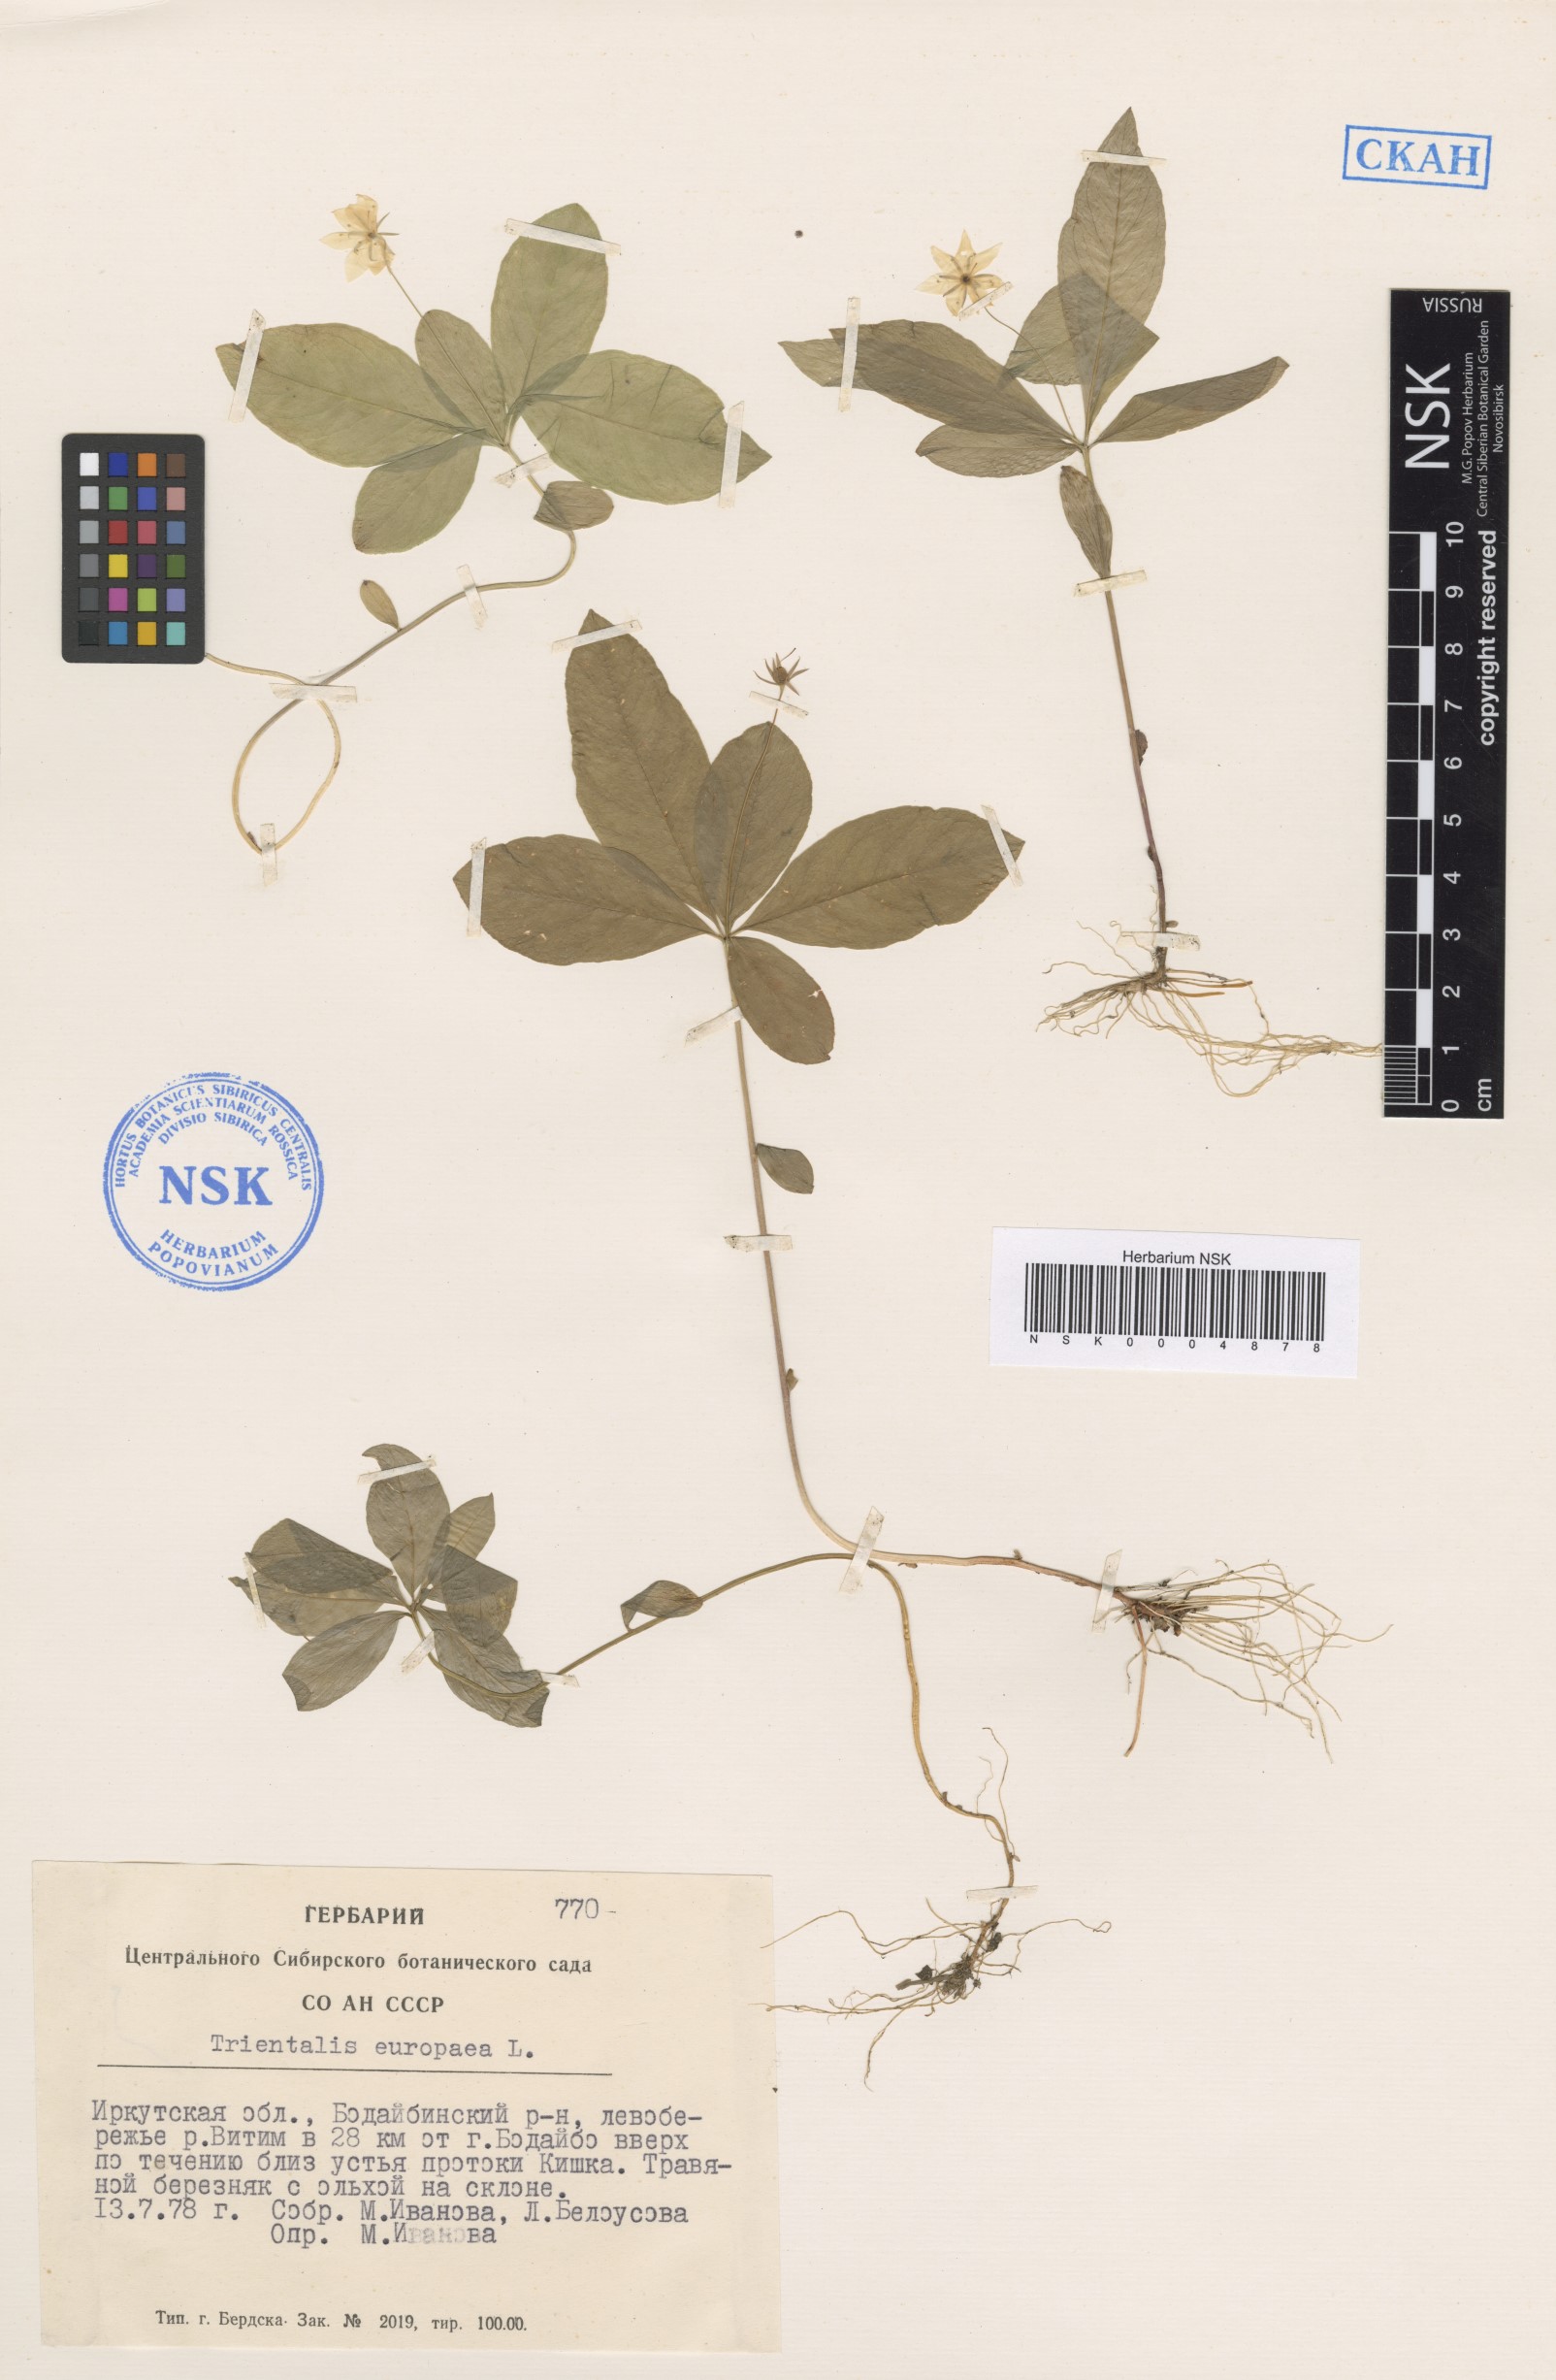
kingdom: Plantae
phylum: Tracheophyta
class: Magnoliopsida
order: Ericales
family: Primulaceae
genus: Lysimachia
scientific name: Lysimachia europaea
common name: Arctic starflower
